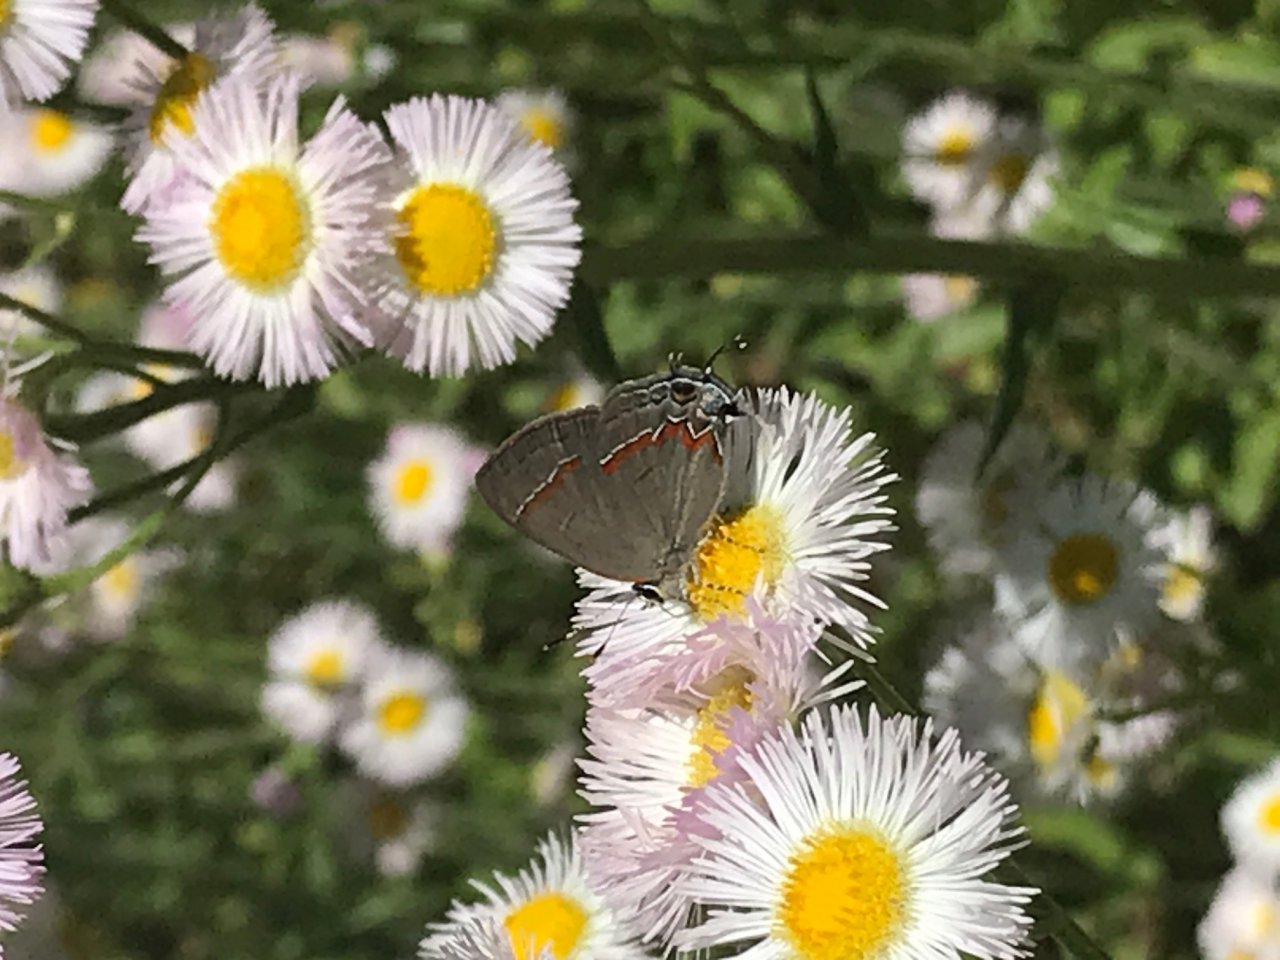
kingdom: Animalia
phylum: Arthropoda
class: Insecta
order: Lepidoptera
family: Lycaenidae
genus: Calycopis
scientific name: Calycopis cecrops
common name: Red-banded Hairstreak
